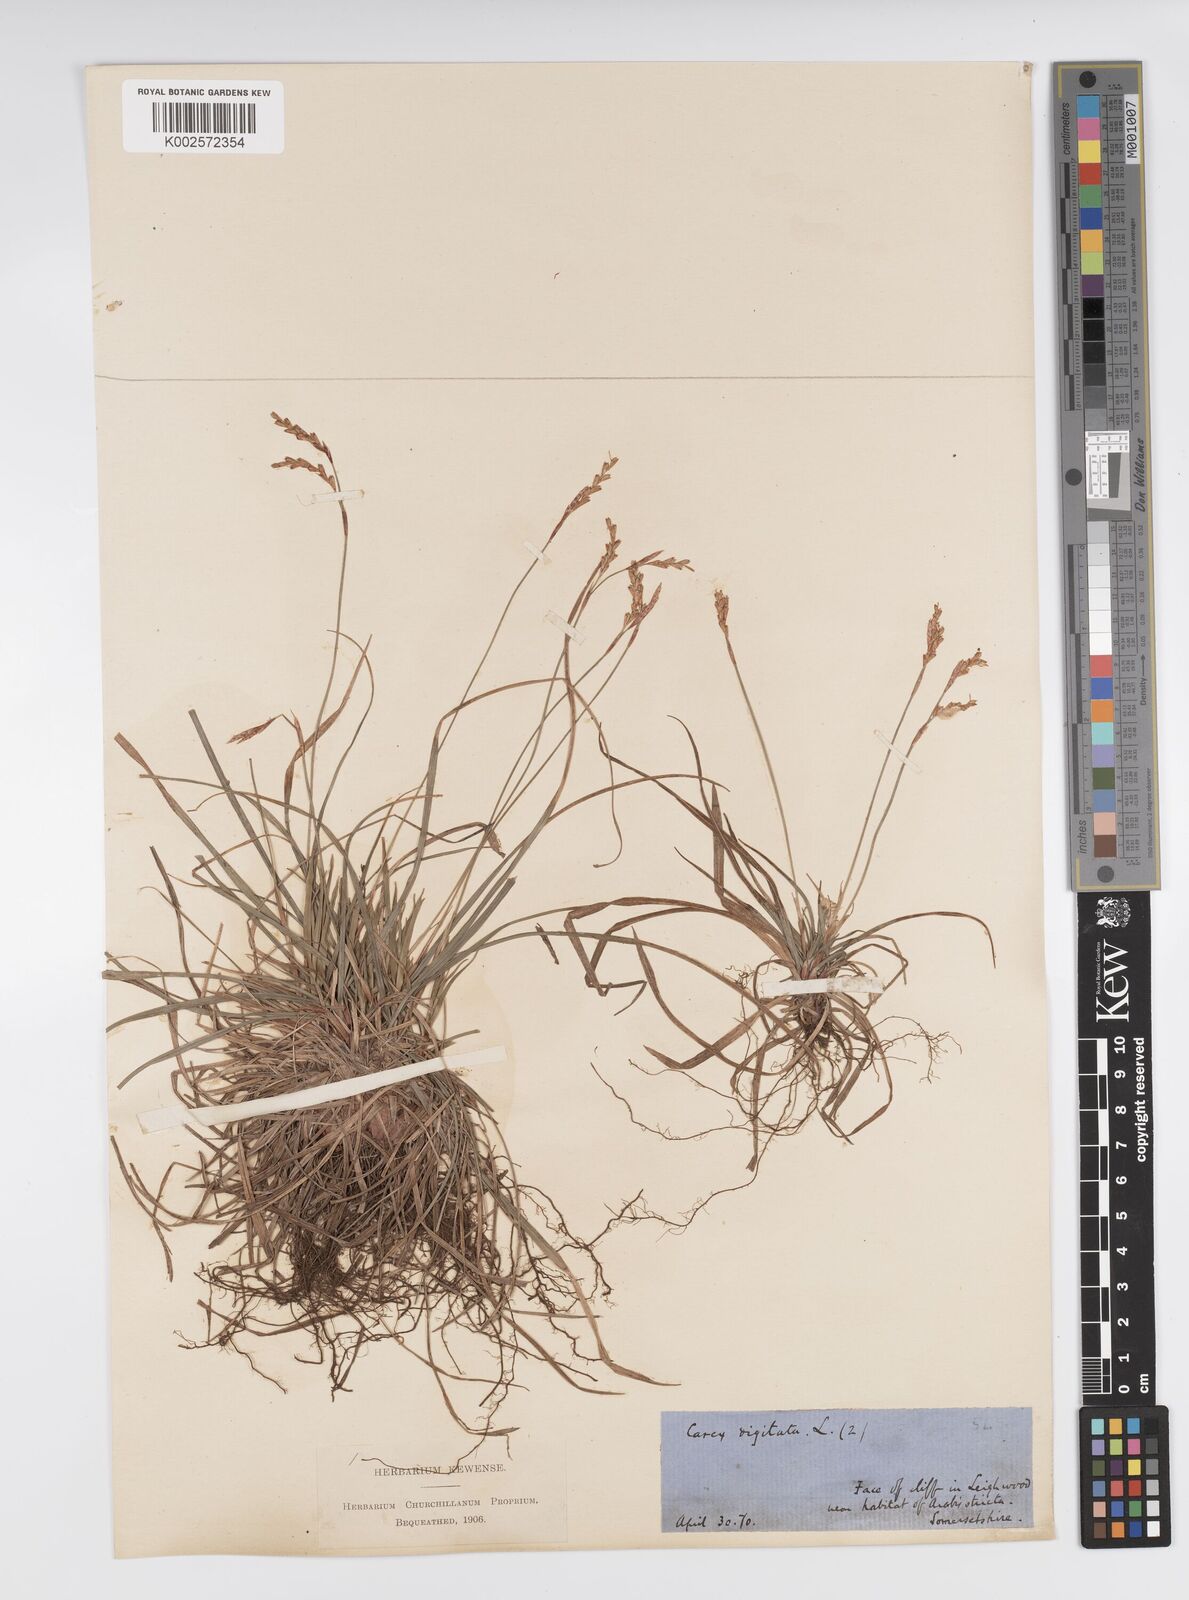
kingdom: Plantae
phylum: Tracheophyta
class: Liliopsida
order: Poales
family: Cyperaceae
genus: Carex
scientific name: Carex digitata
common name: Fingered sedge
